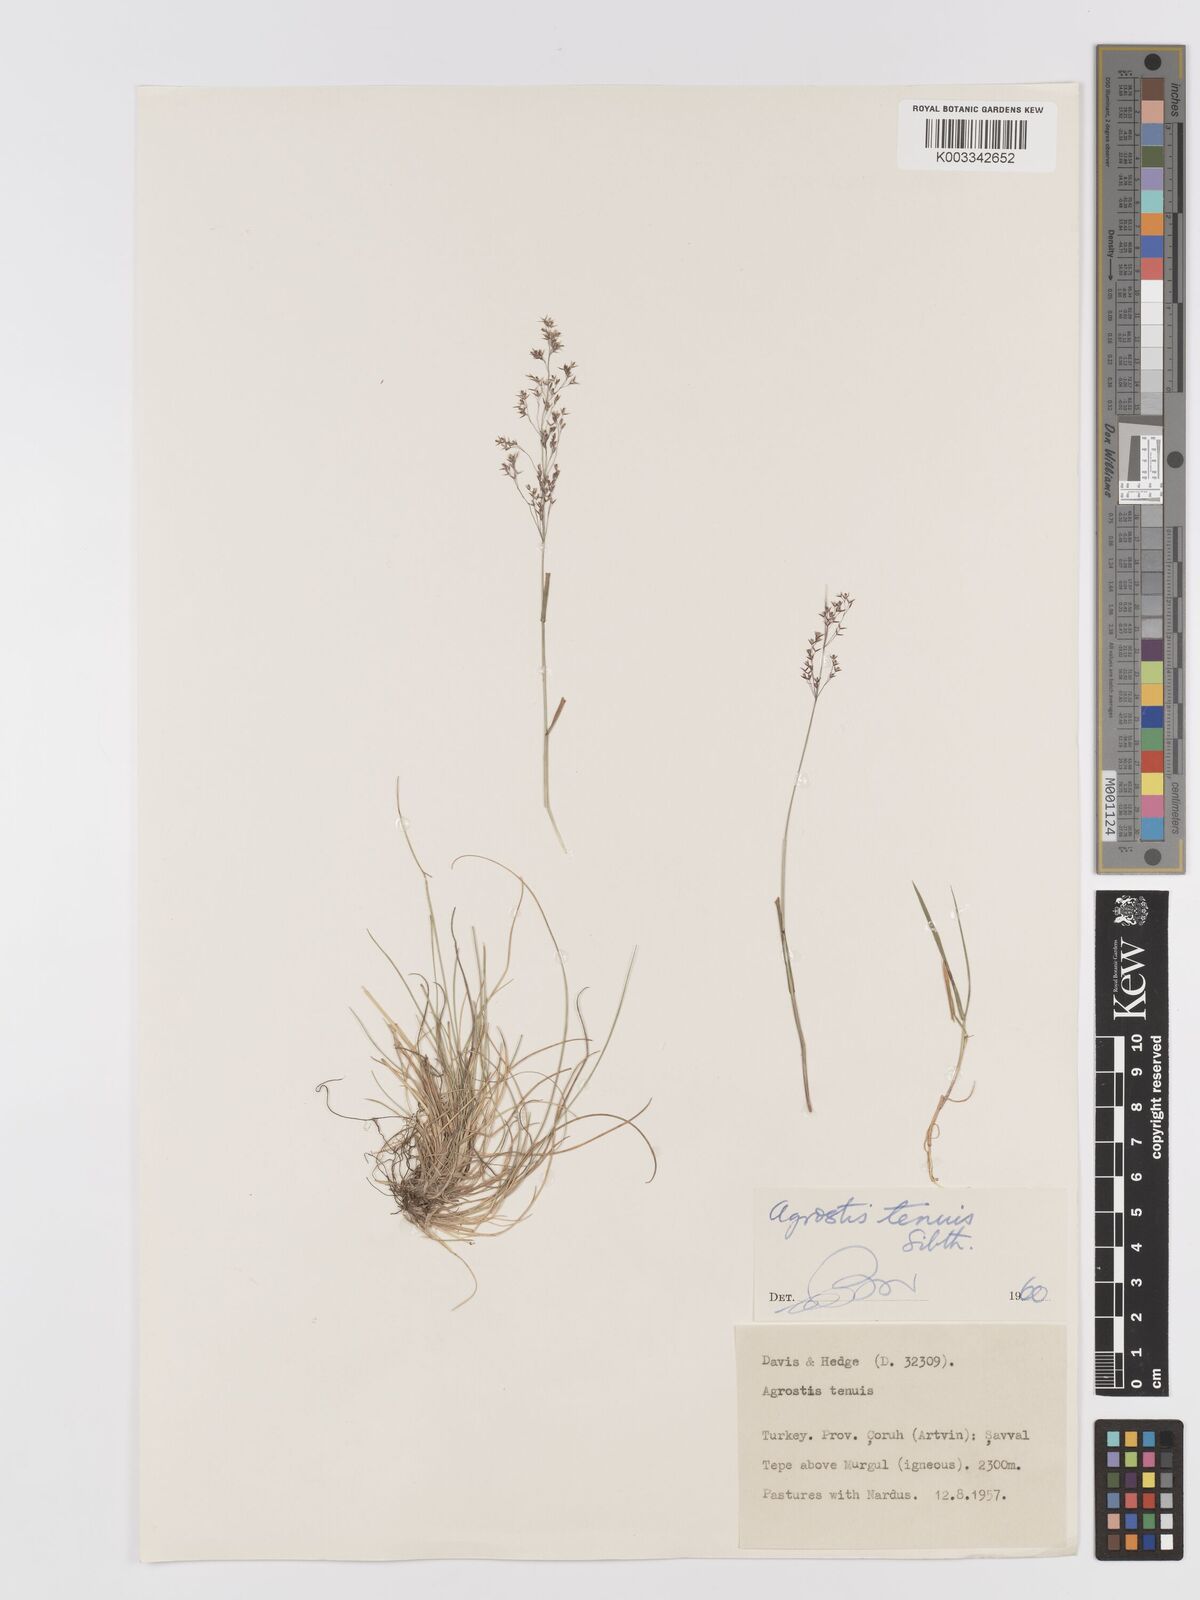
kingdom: Plantae
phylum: Tracheophyta
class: Liliopsida
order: Poales
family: Poaceae
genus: Agrostis
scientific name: Agrostis capillaris
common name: Colonial bentgrass
